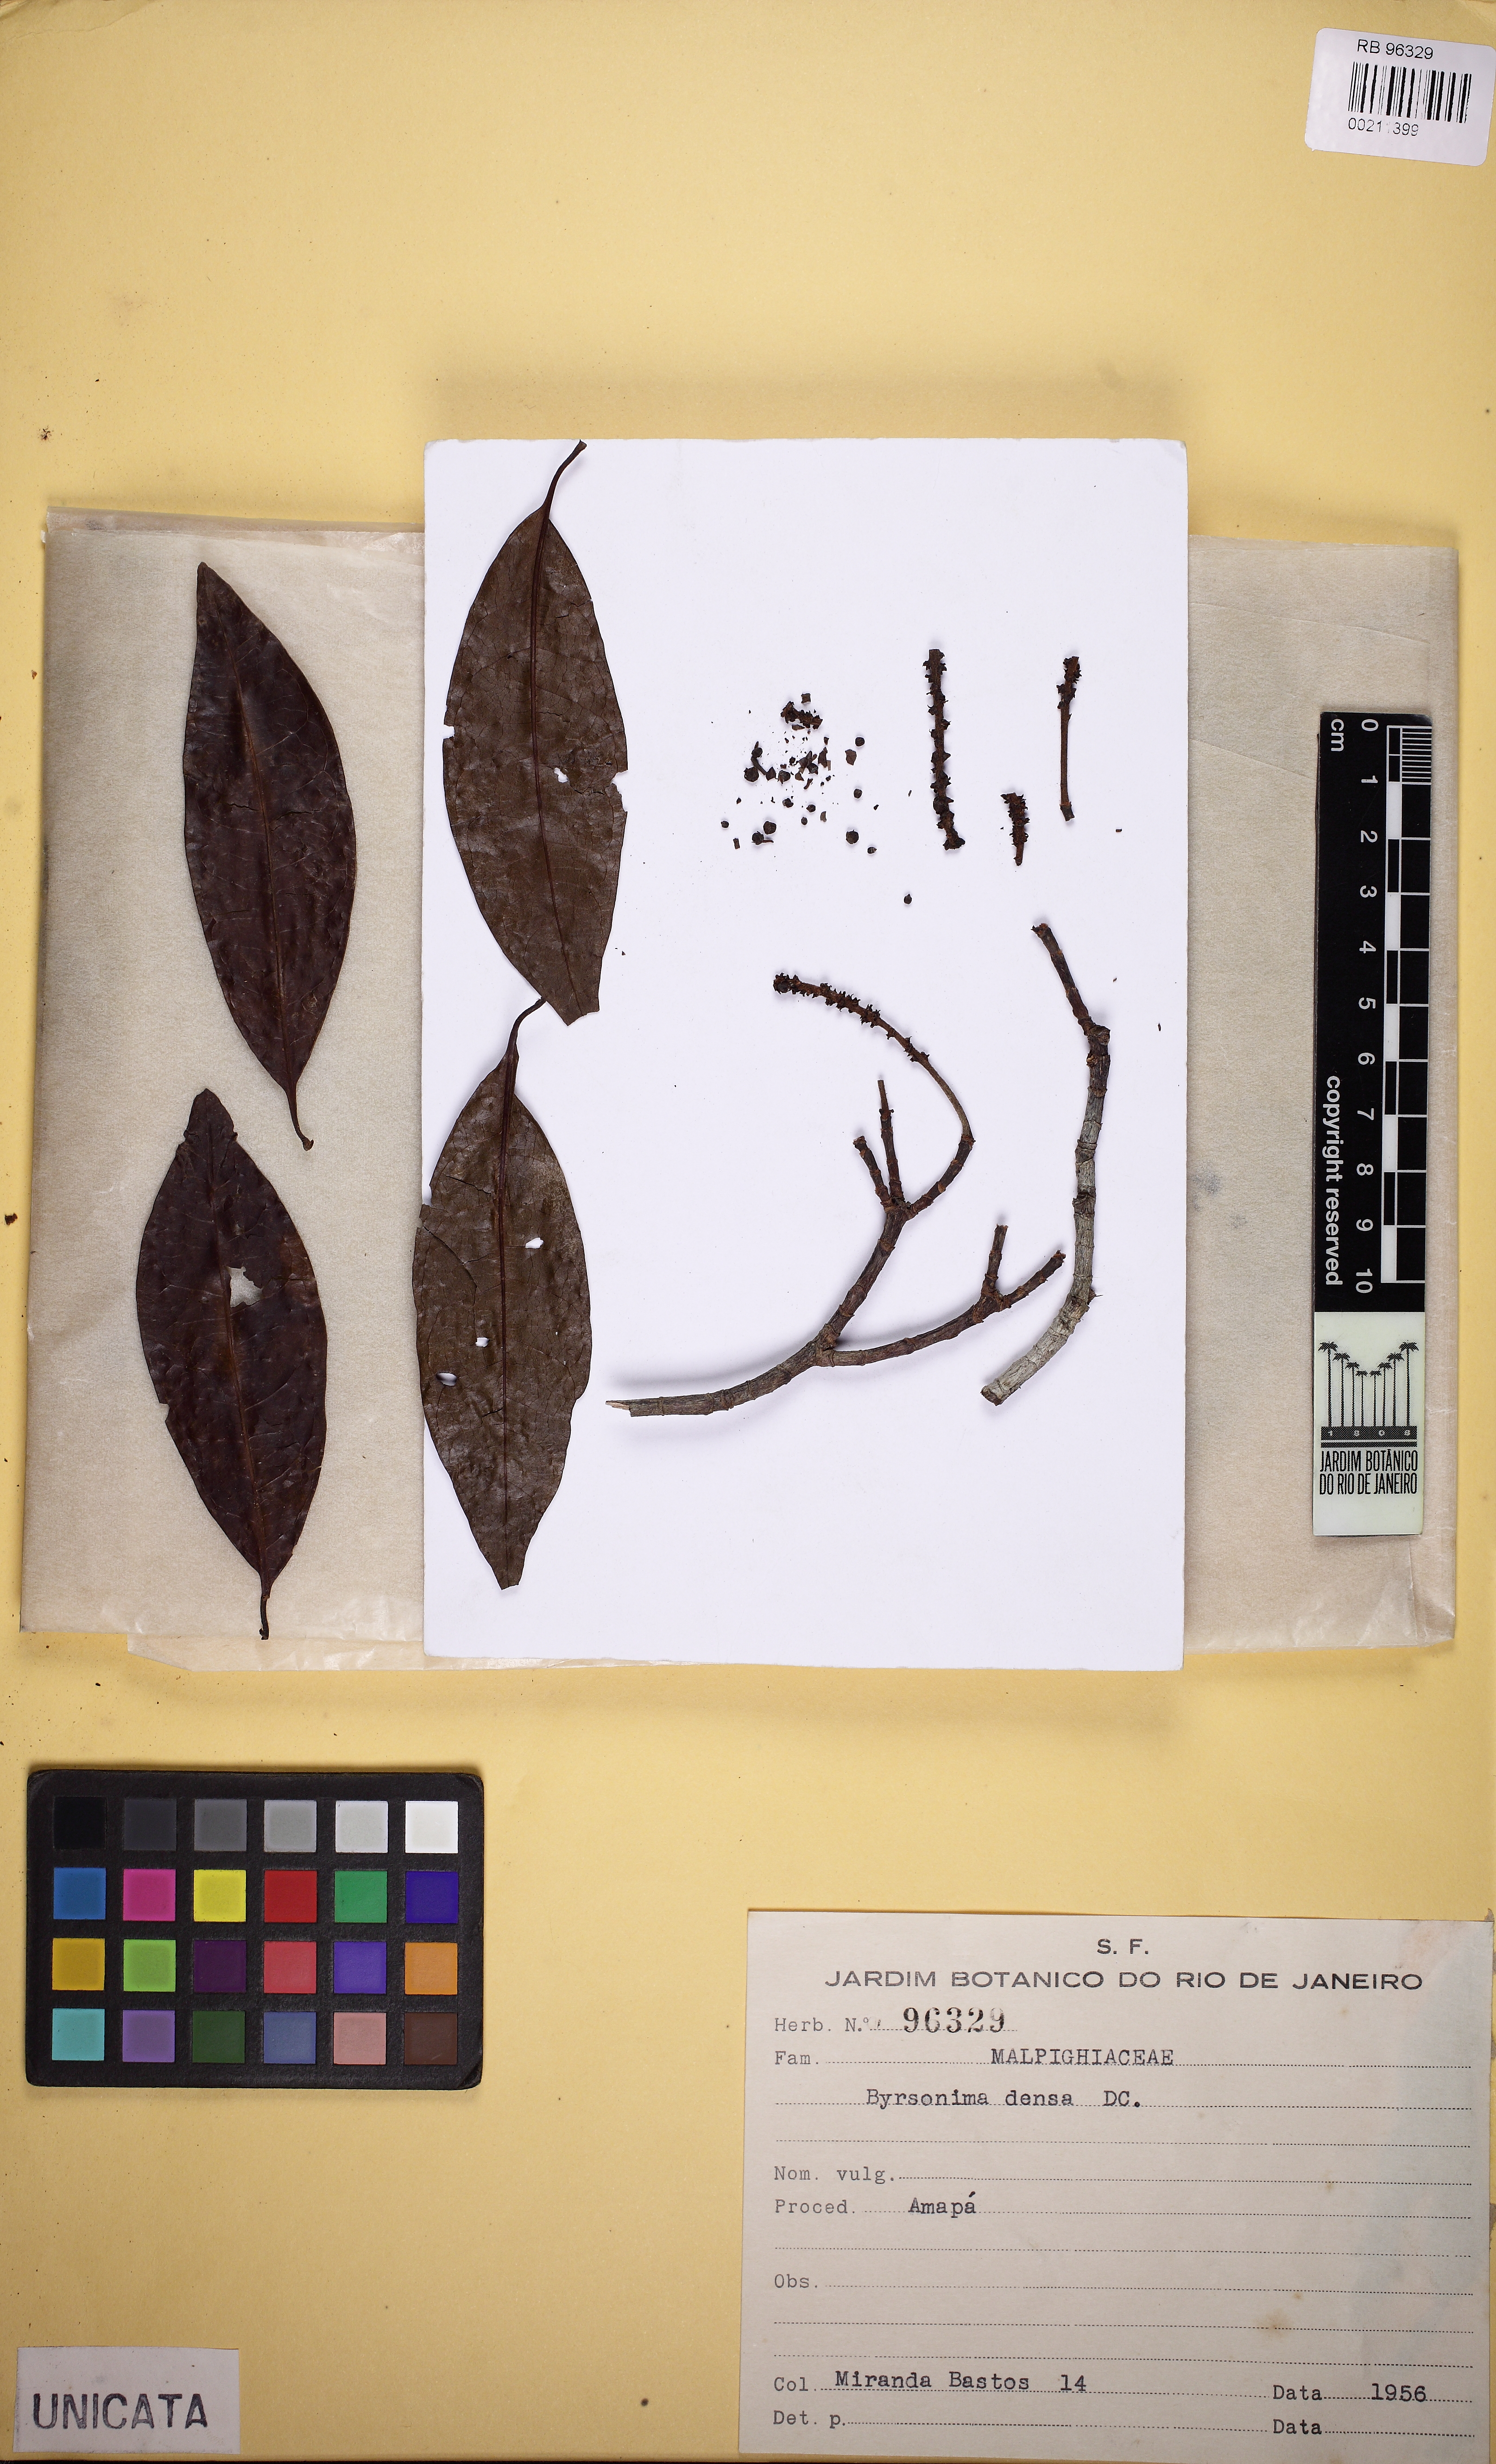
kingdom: Plantae
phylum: Tracheophyta
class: Magnoliopsida
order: Malpighiales
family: Malpighiaceae
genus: Byrsonima
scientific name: Byrsonima densa
